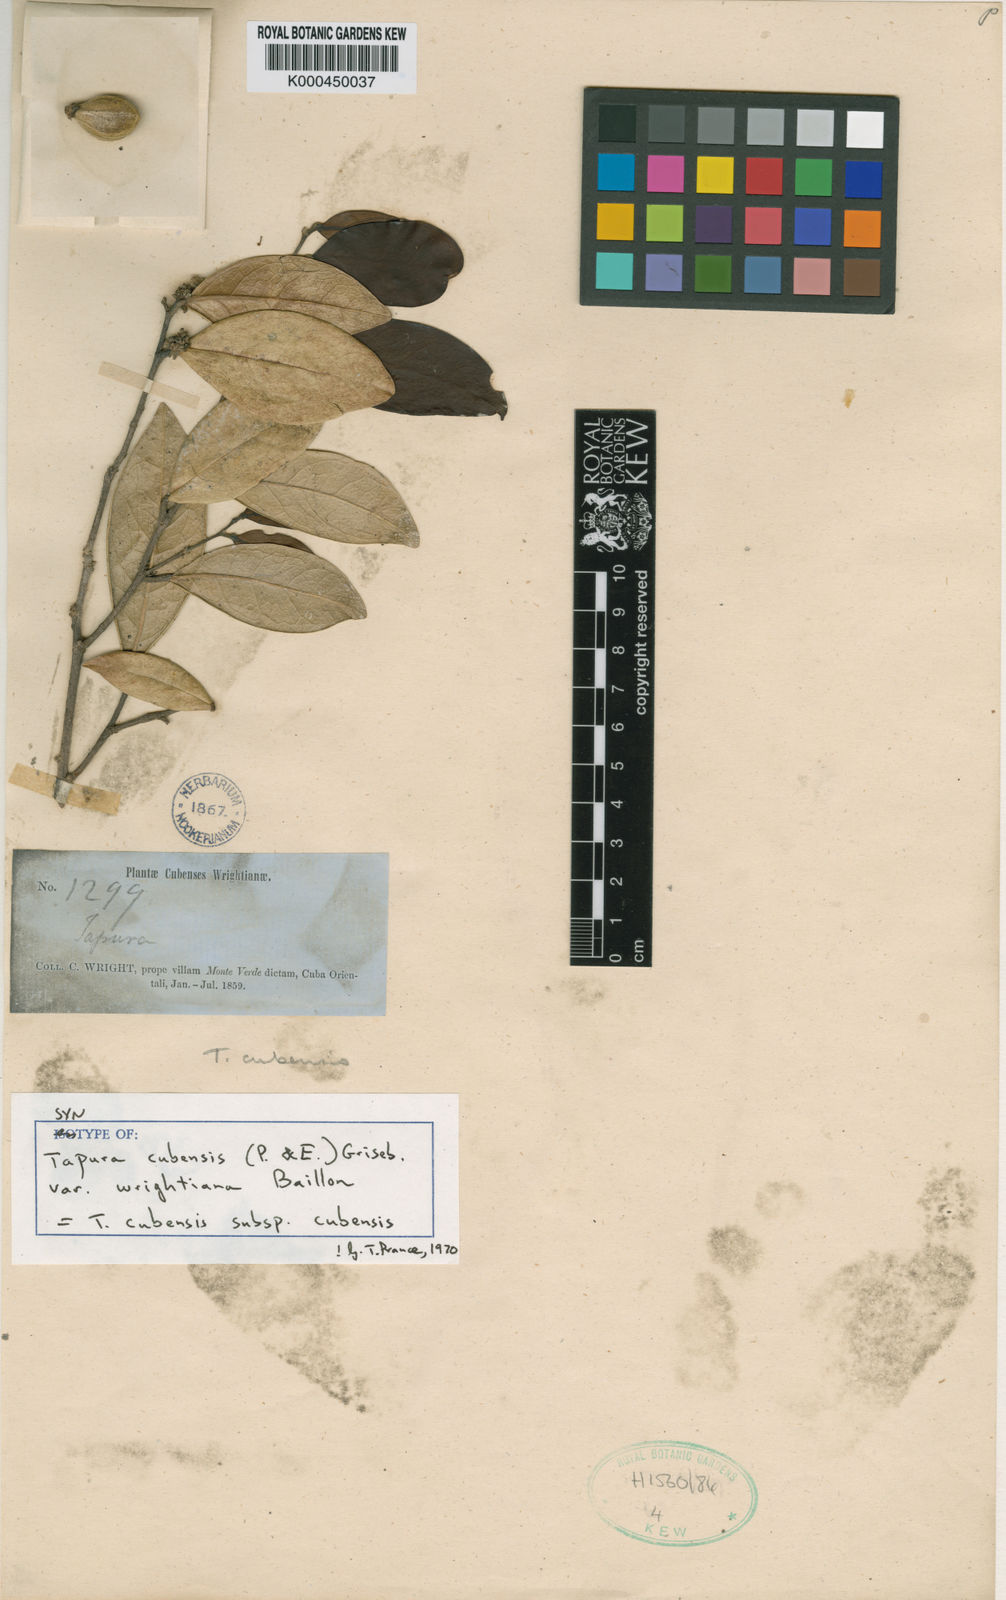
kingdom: Plantae
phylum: Tracheophyta
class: Magnoliopsida
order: Malpighiales
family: Dichapetalaceae
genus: Tapura
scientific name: Tapura cubensis
